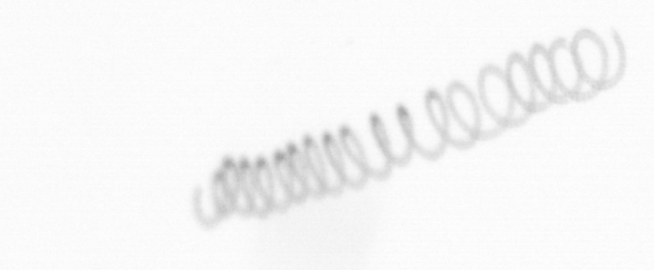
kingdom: Chromista
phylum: Ochrophyta
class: Bacillariophyceae
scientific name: Bacillariophyceae
